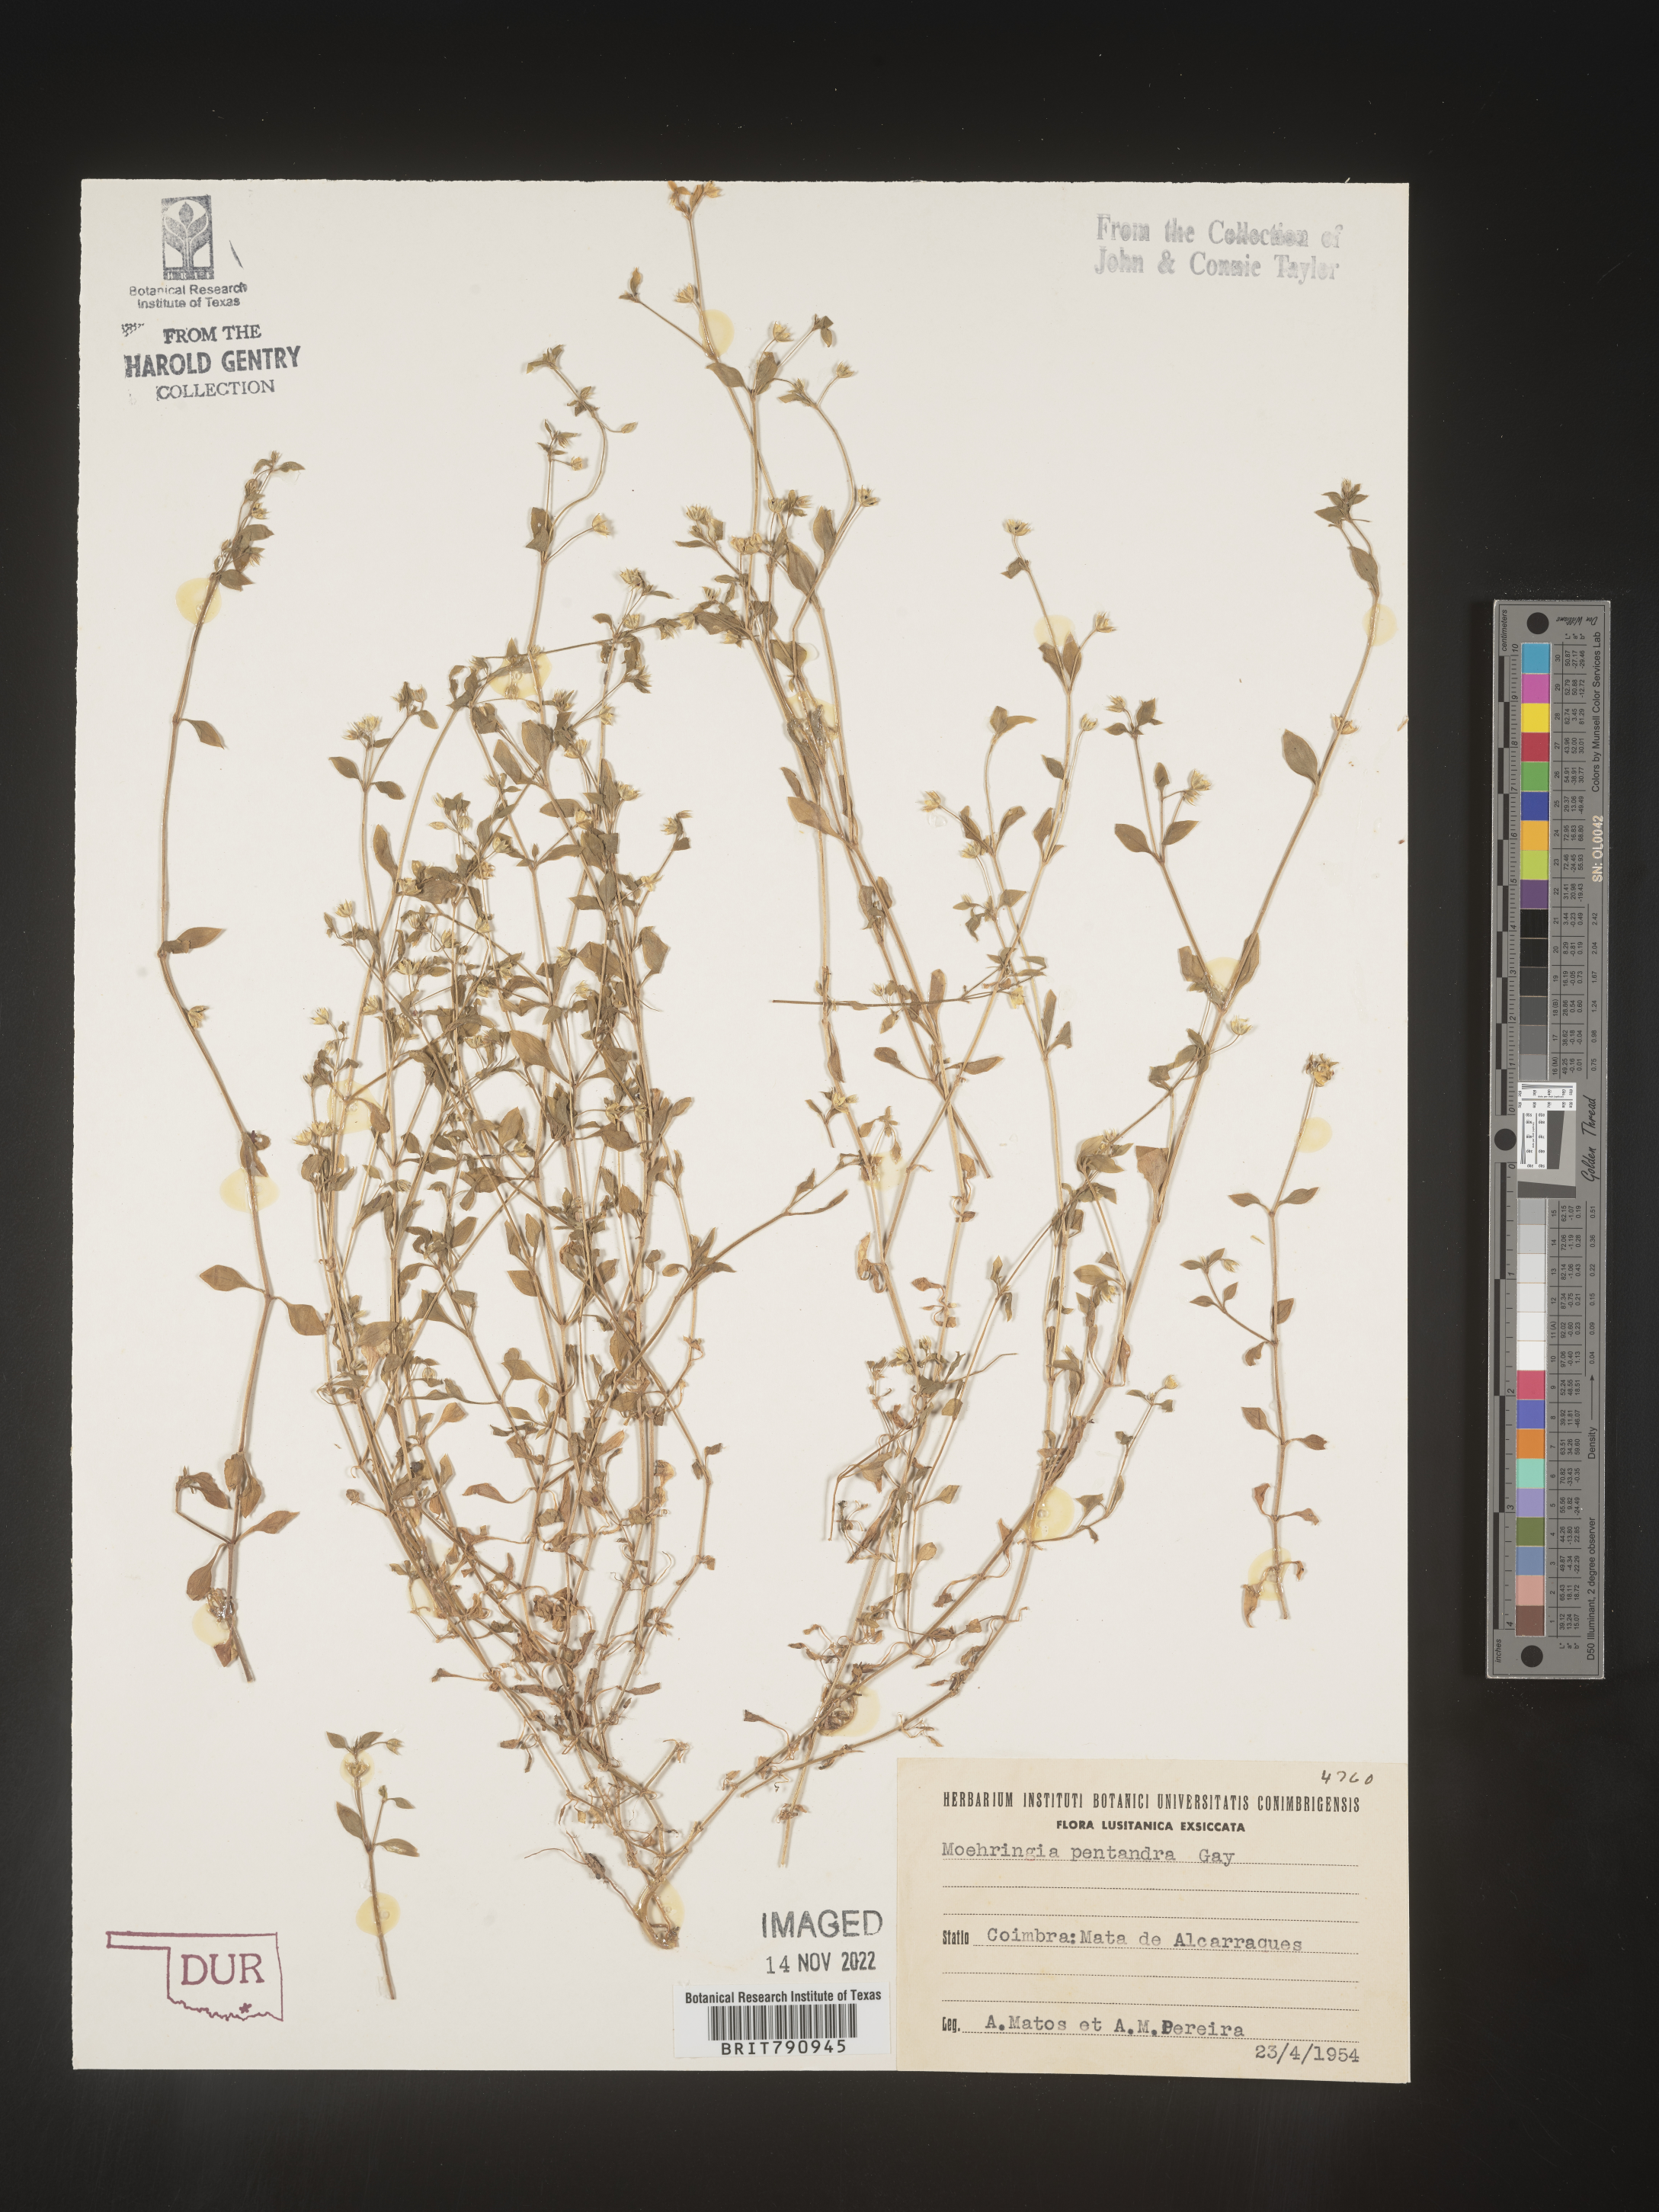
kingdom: Plantae
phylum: Tracheophyta
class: Magnoliopsida
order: Caryophyllales
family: Caryophyllaceae
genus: Moehringia
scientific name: Moehringia
